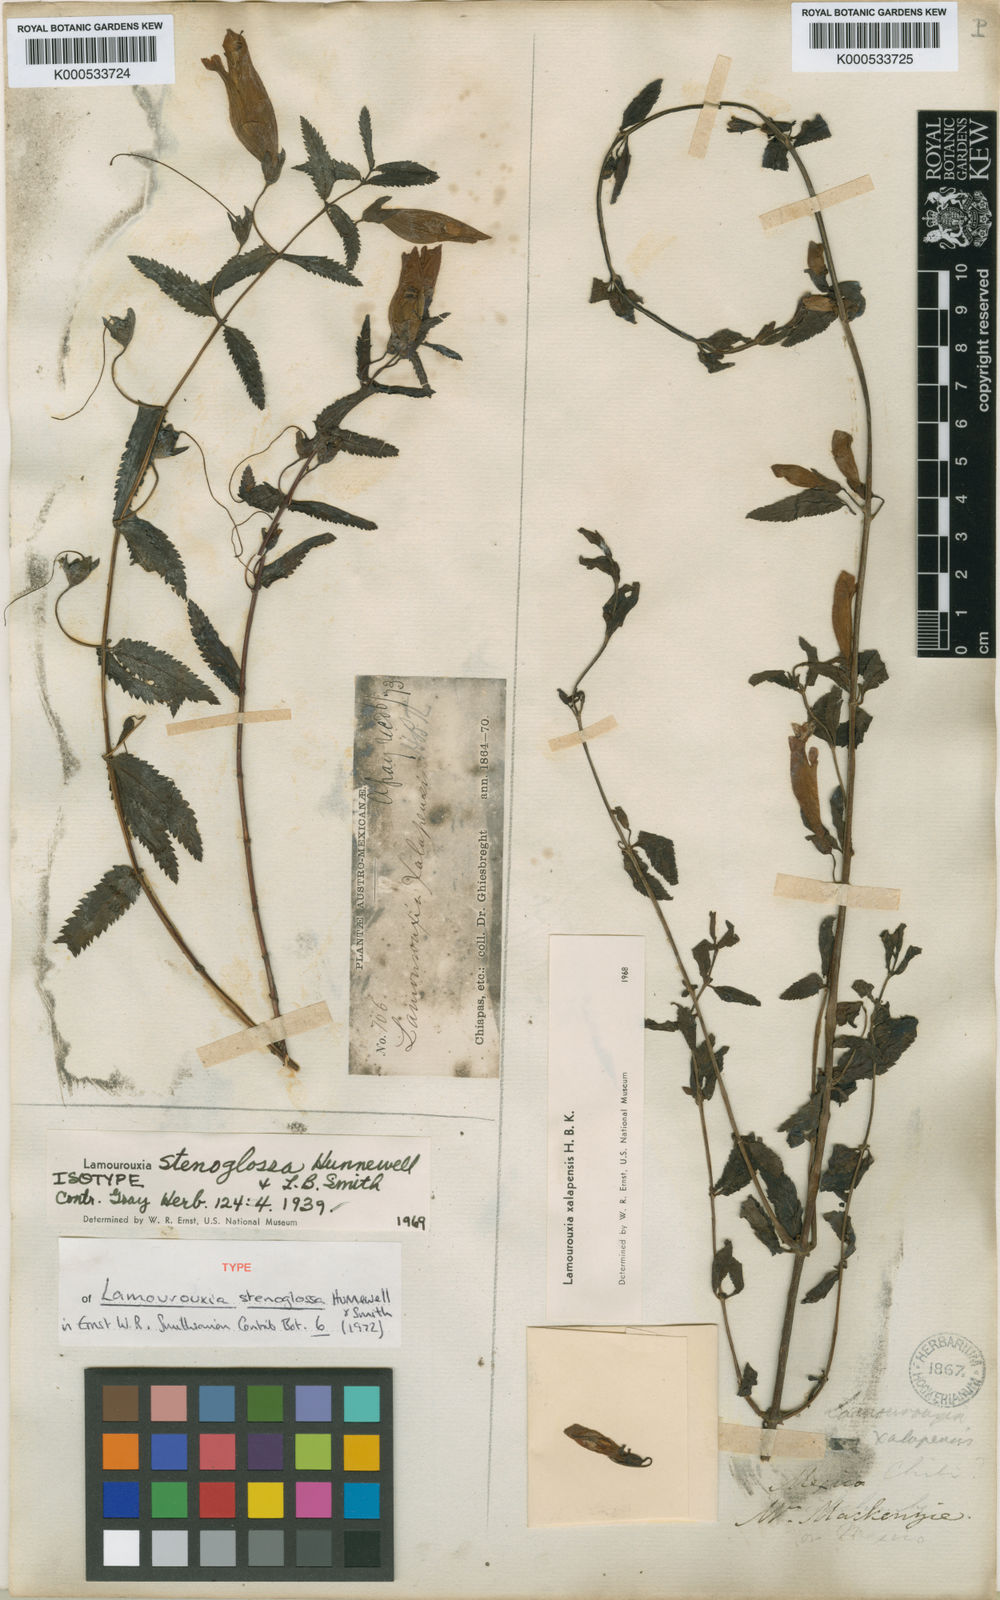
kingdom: Plantae
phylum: Tracheophyta
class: Magnoliopsida
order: Lamiales
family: Orobanchaceae
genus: Lamourouxia
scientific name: Lamourouxia xalapensis
